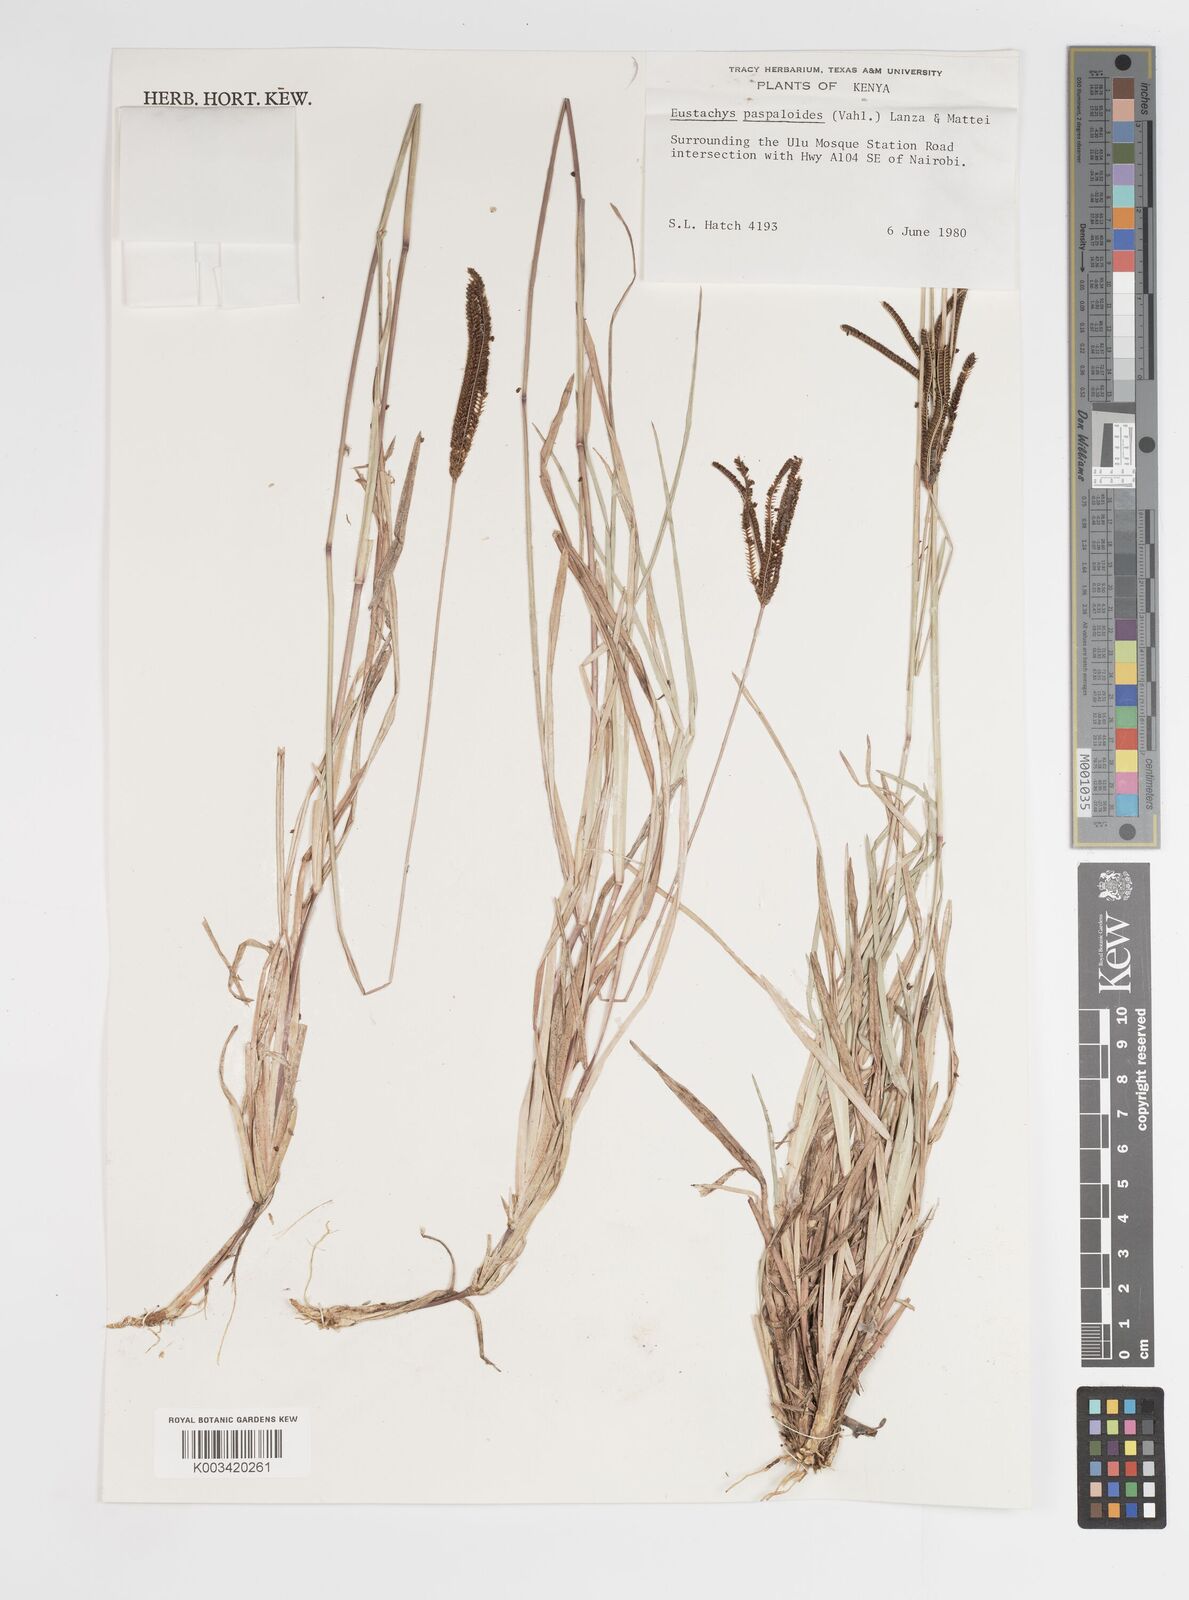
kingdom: Plantae
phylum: Tracheophyta
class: Liliopsida
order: Poales
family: Poaceae
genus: Eustachys
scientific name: Eustachys paspaloides
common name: Caribbean fingergrass
